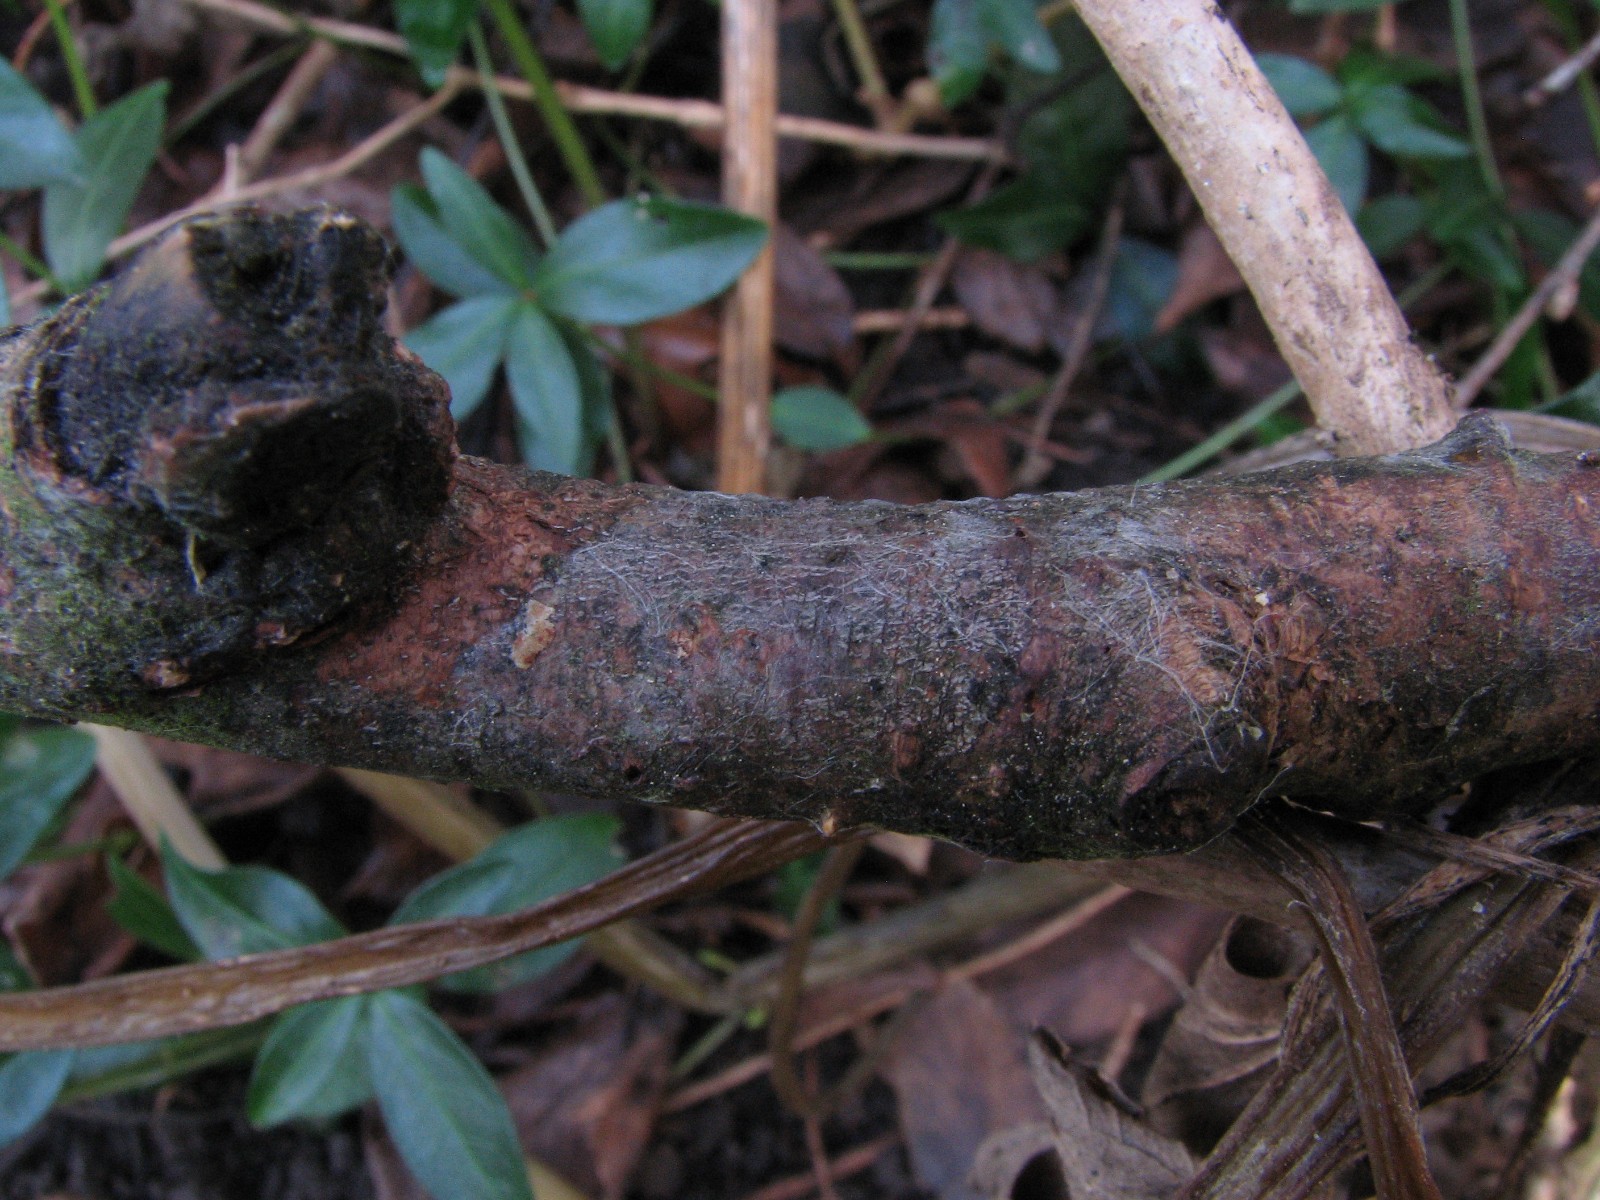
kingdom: Fungi
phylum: Basidiomycota
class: Agaricomycetes
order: Cantharellales
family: Oliveoniaceae
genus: Oliveonia
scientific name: Oliveonia citrispora
